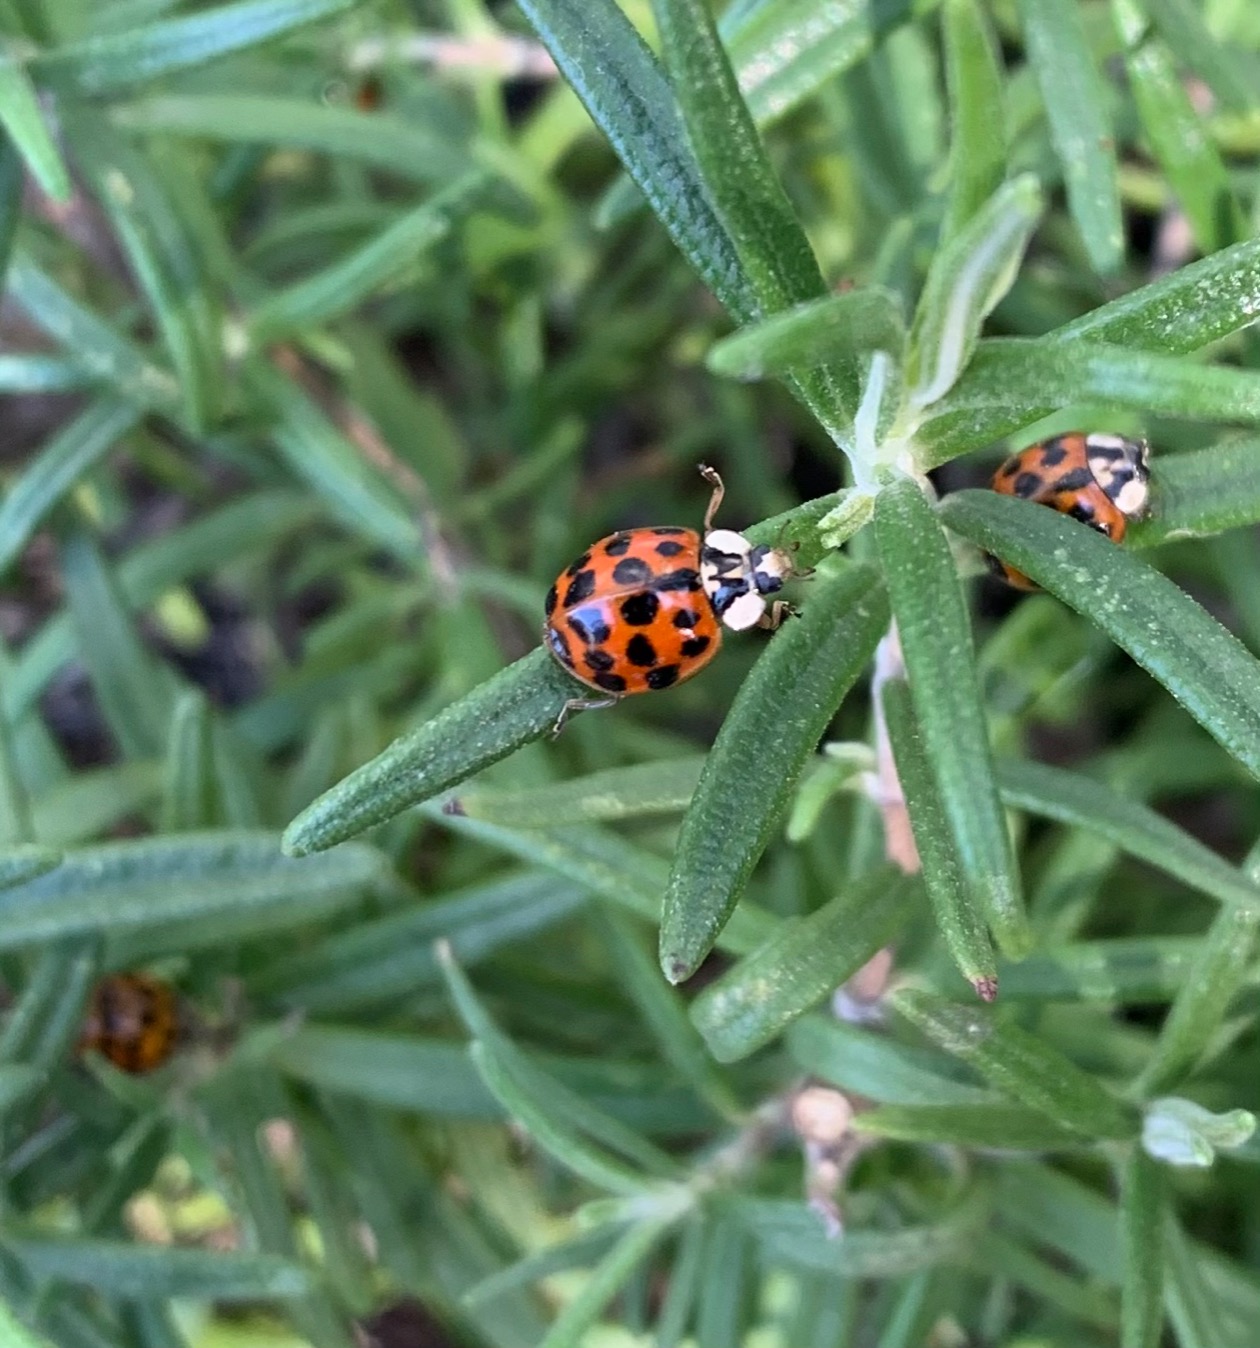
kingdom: Animalia
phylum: Arthropoda
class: Insecta
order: Coleoptera
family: Coccinellidae
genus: Harmonia
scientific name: Harmonia axyridis
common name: Harlekinmariehøne
